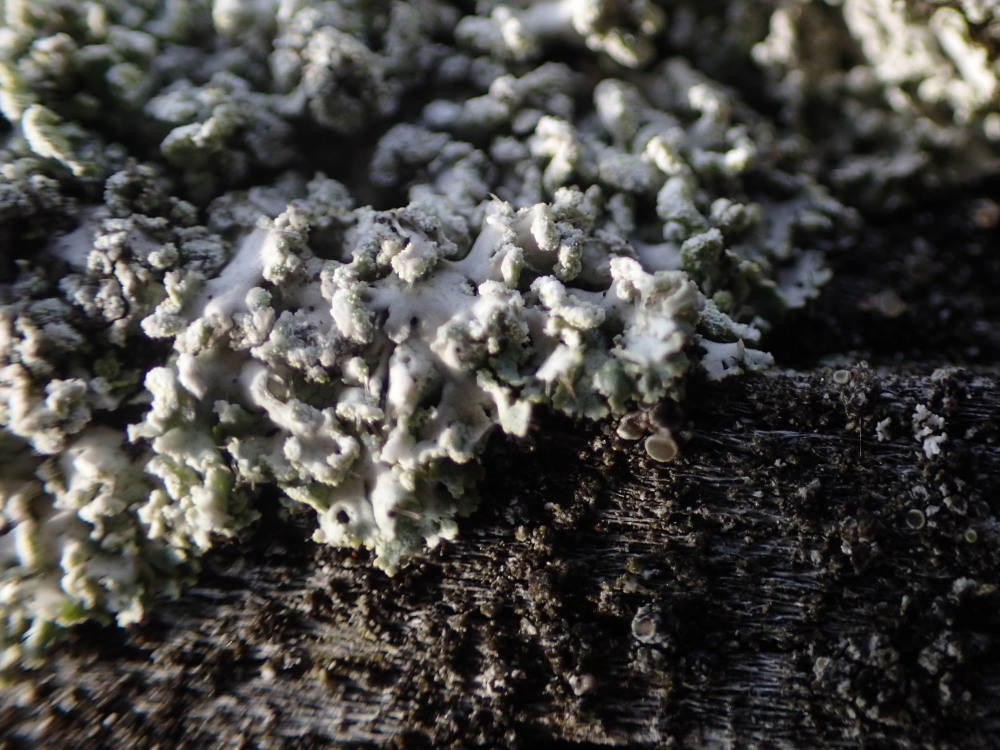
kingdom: Fungi
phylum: Ascomycota
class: Lecanoromycetes
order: Caliciales
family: Physciaceae
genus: Physcia
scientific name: Physcia tenella
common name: spæd rosetlav
